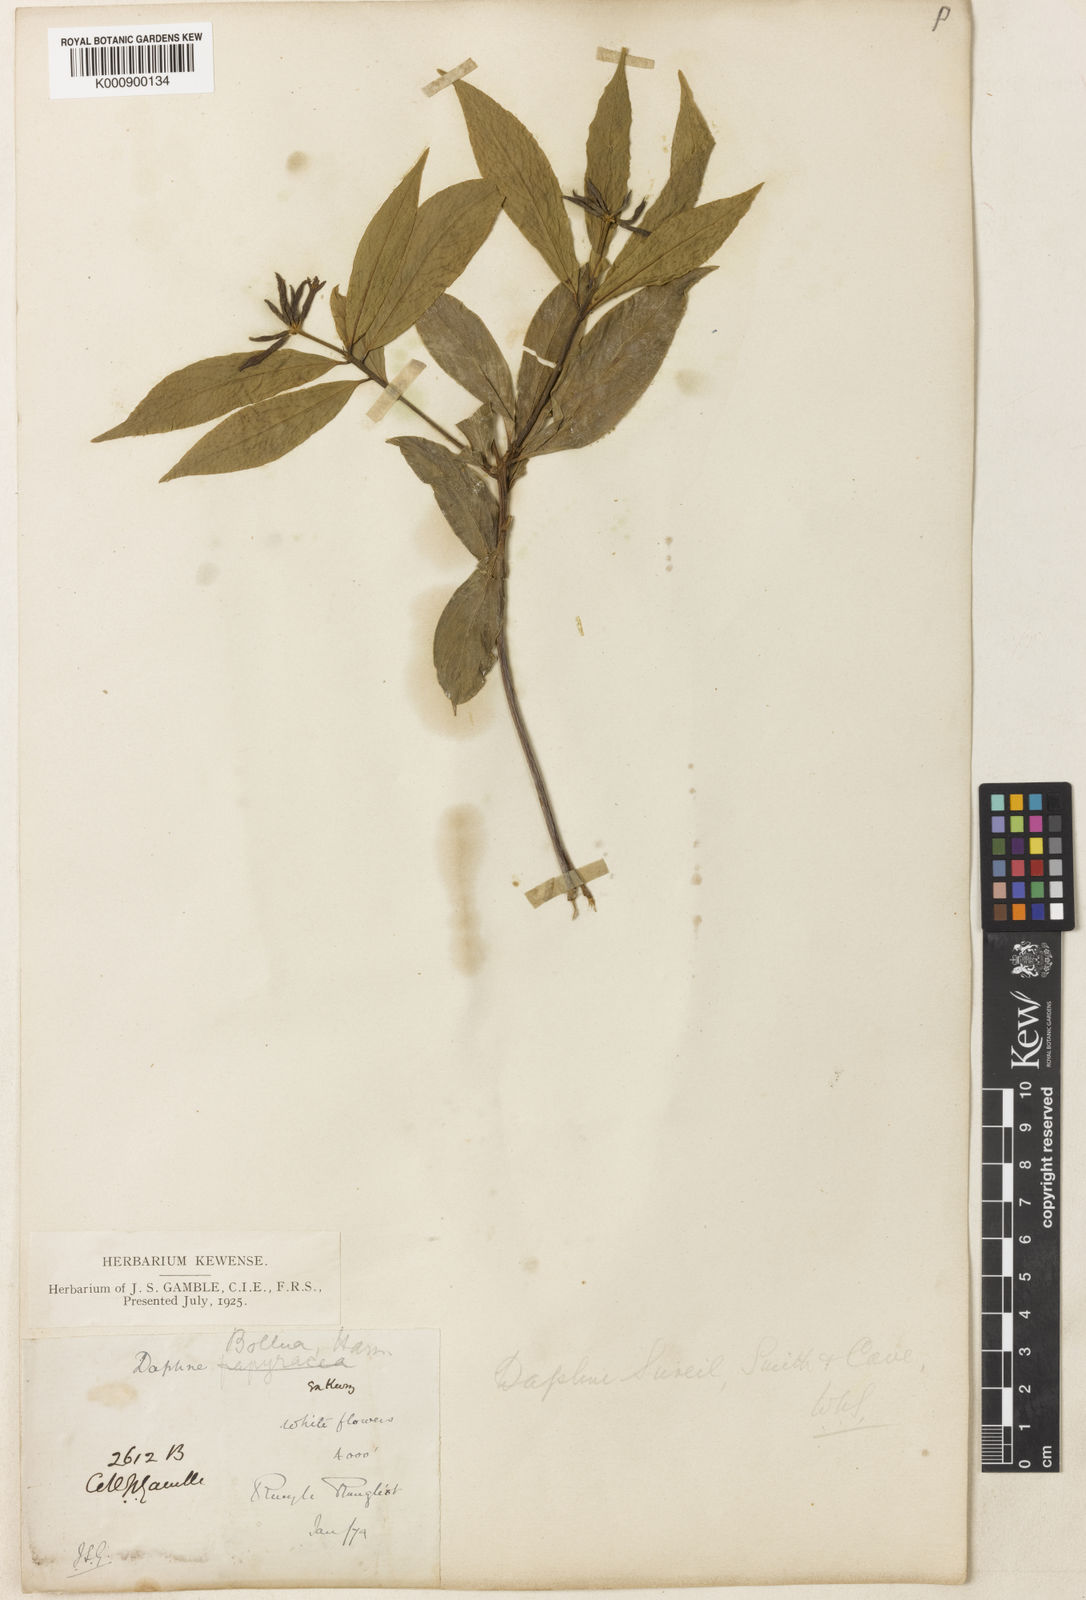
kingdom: Plantae
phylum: Tracheophyta
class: Magnoliopsida
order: Malvales
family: Thymelaeaceae
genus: Daphne
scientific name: Daphne sureil
